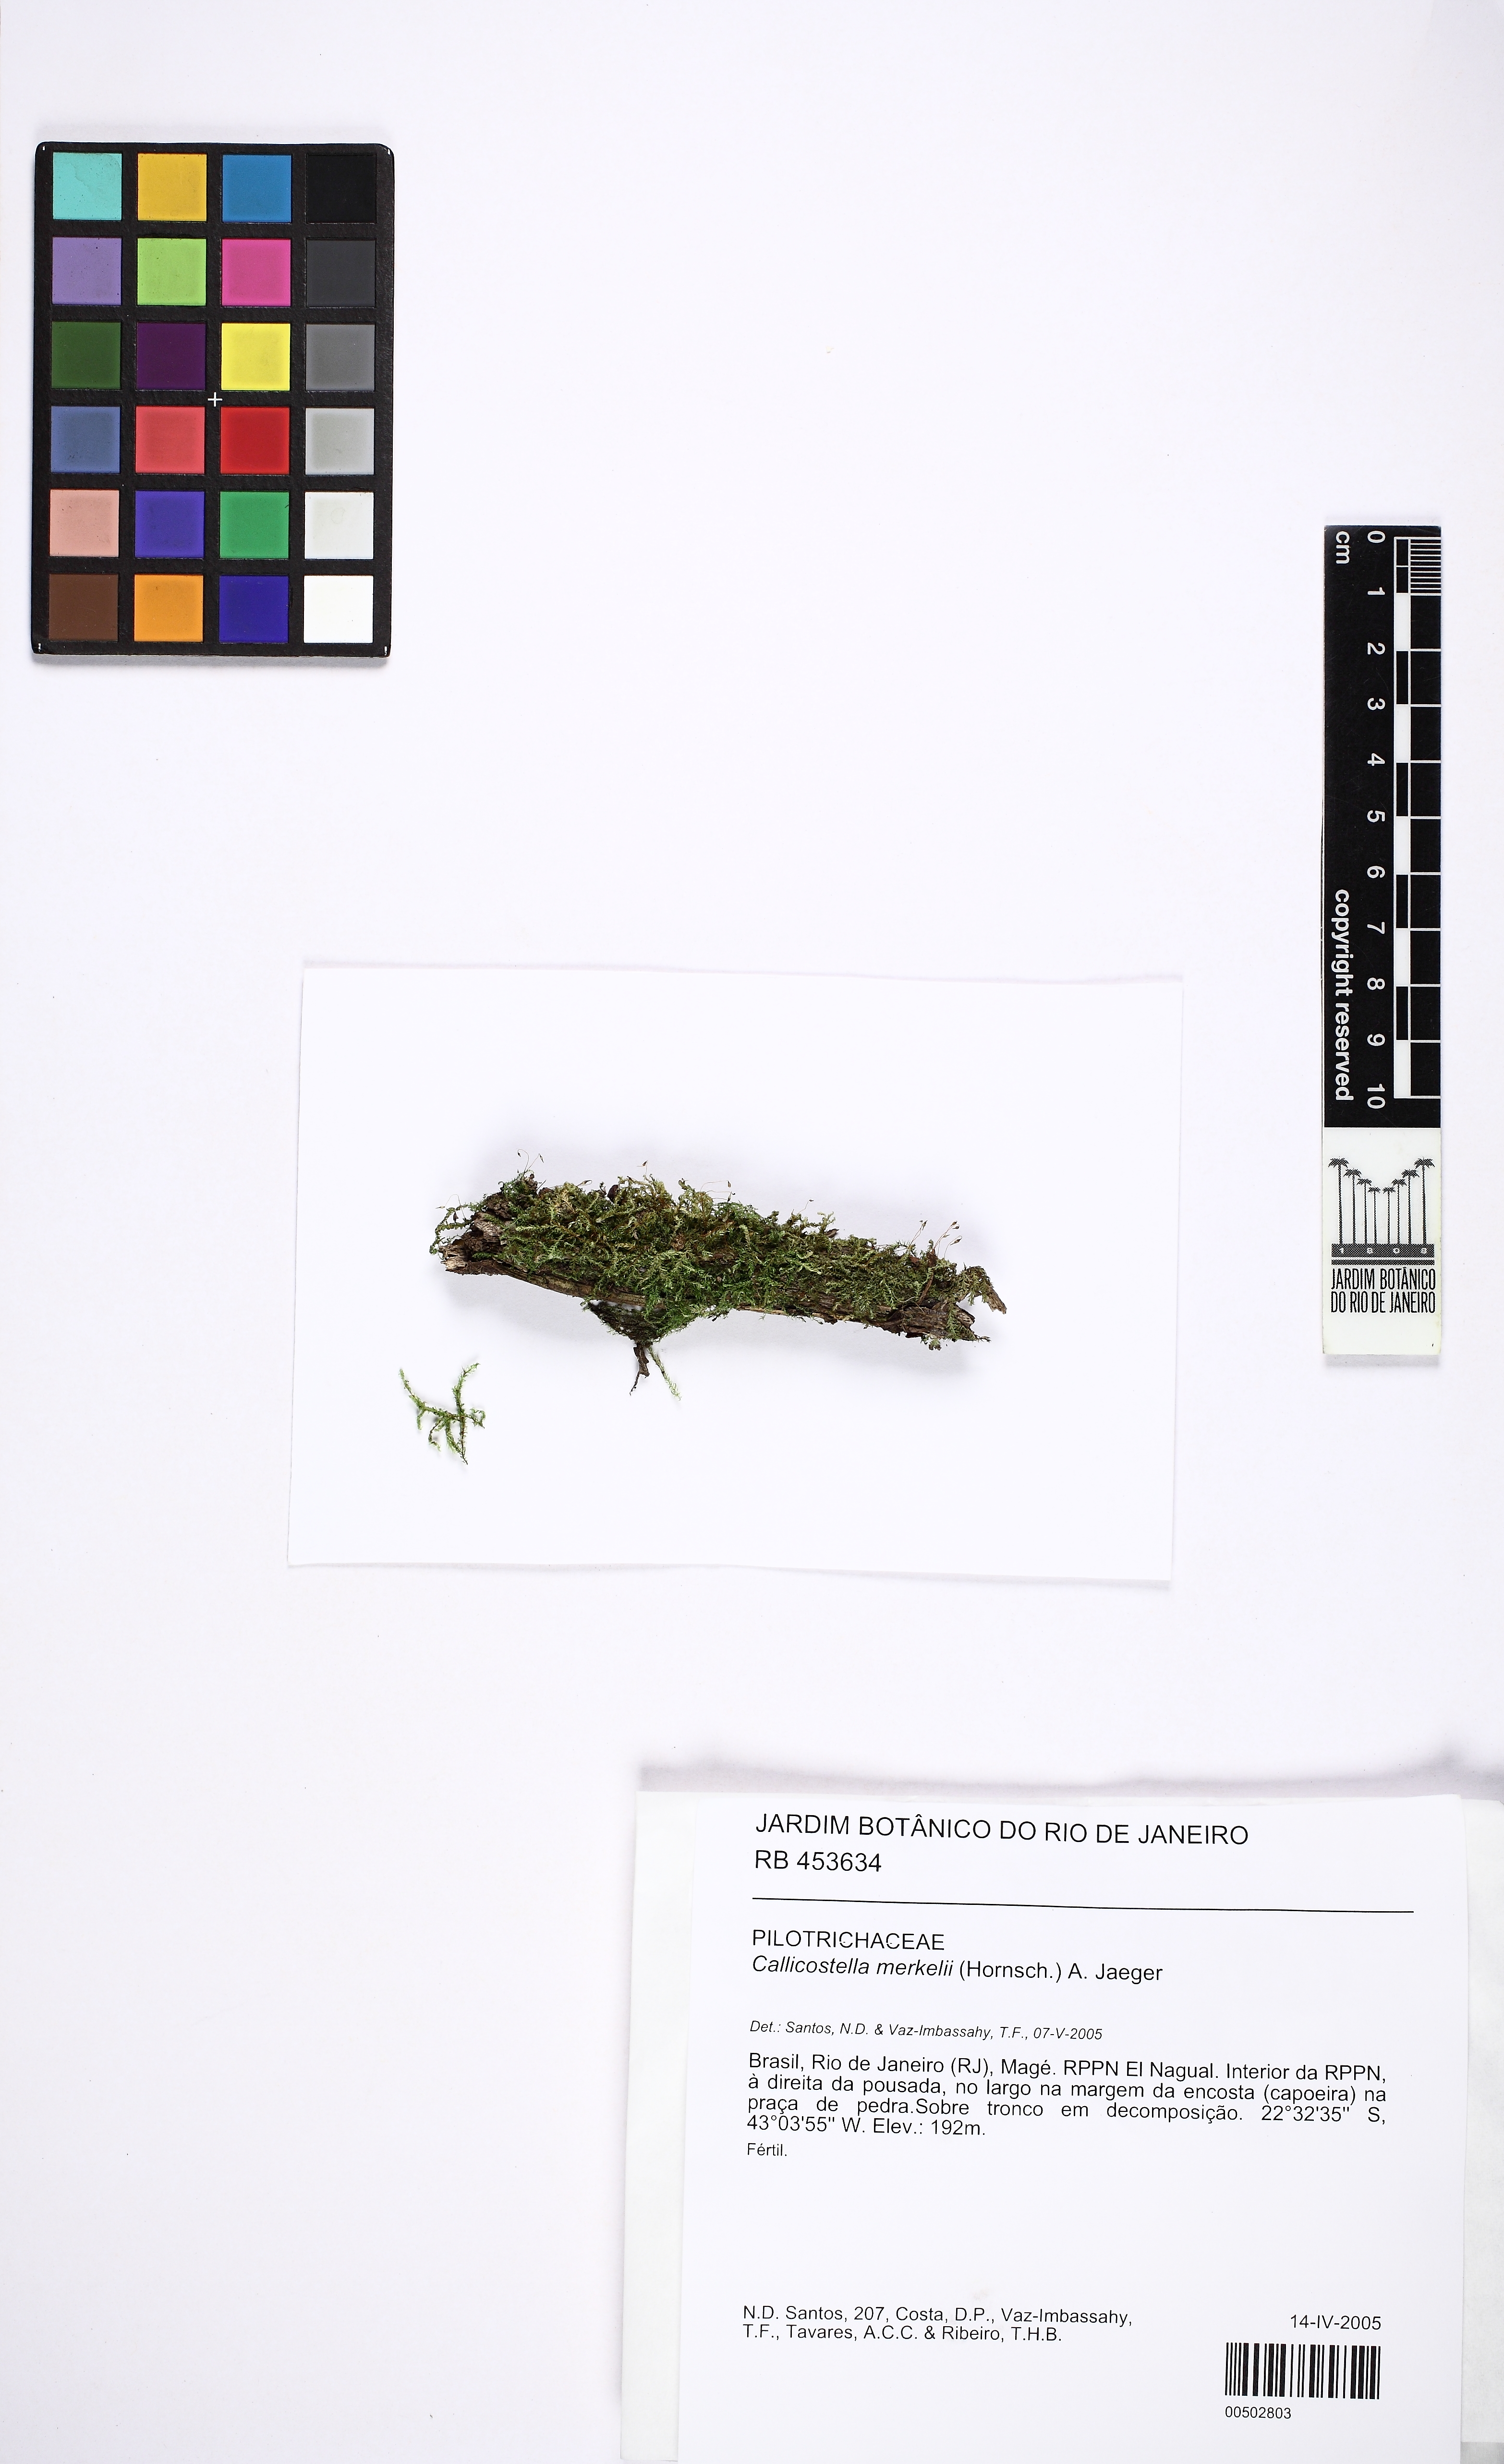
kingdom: Plantae
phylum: Bryophyta
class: Bryopsida
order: Hookeriales
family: Pilotrichaceae
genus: Callicostella
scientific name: Callicostella merkelii
